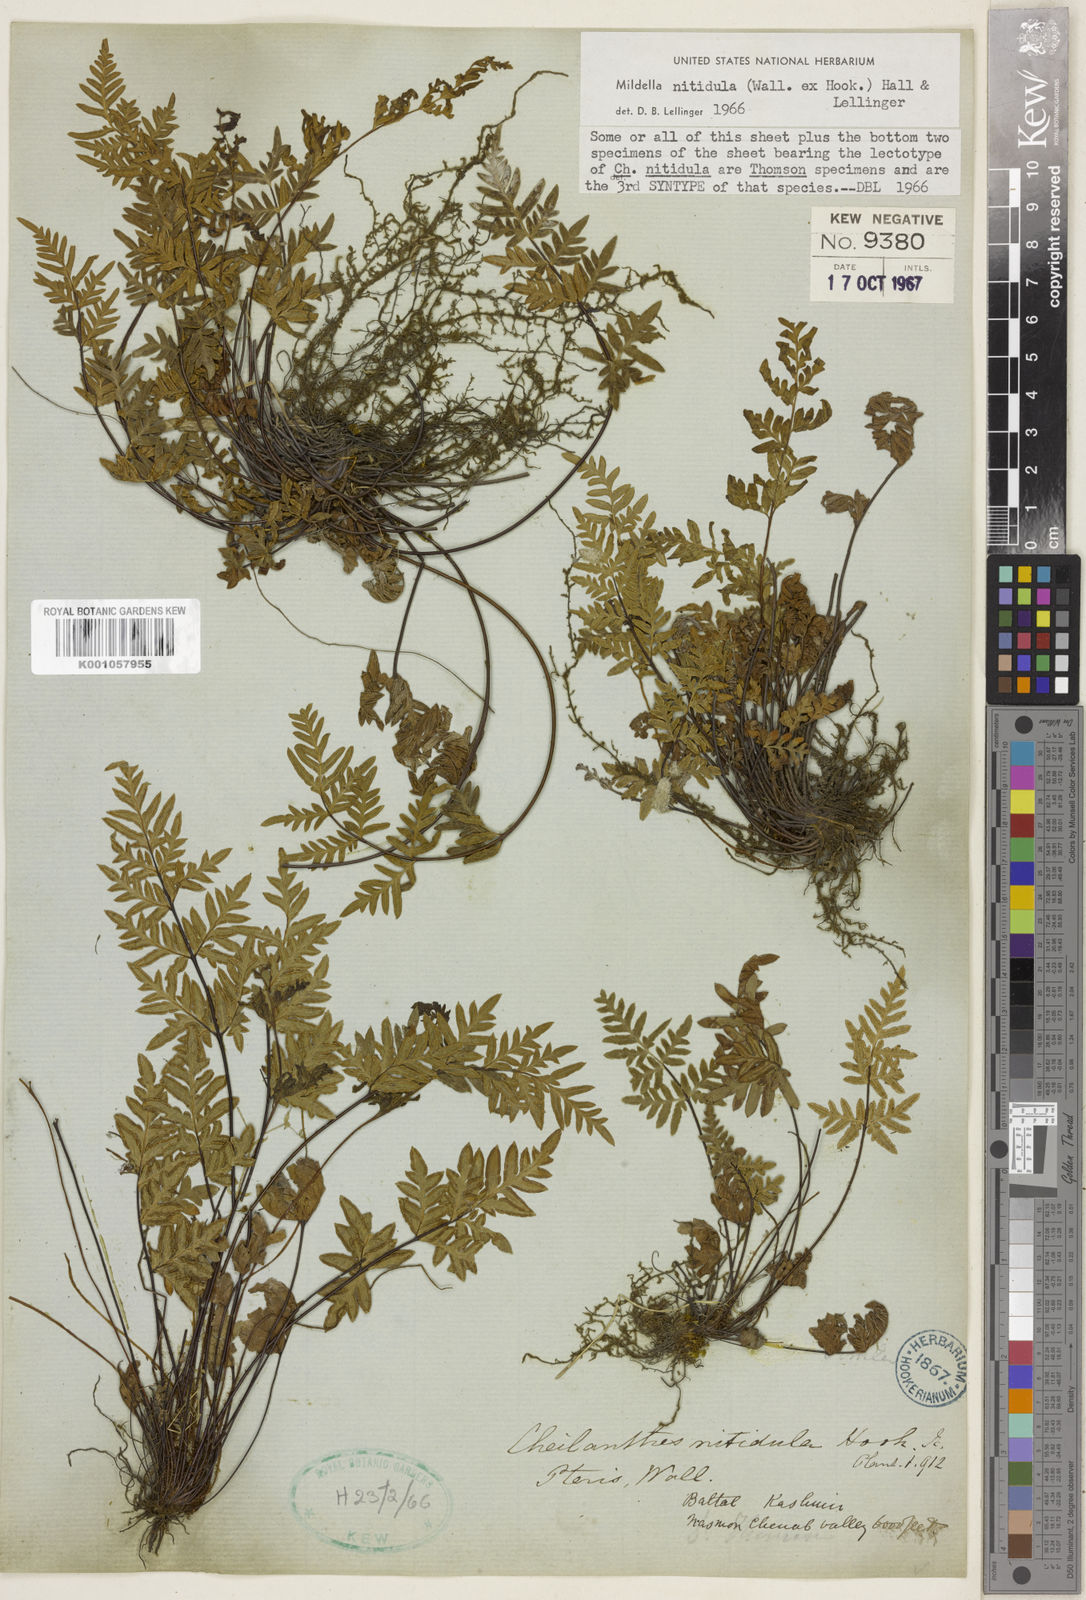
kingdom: Plantae
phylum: Tracheophyta
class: Polypodiopsida
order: Polypodiales
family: Pteridaceae
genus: Mildella
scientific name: Mildella nitidula
